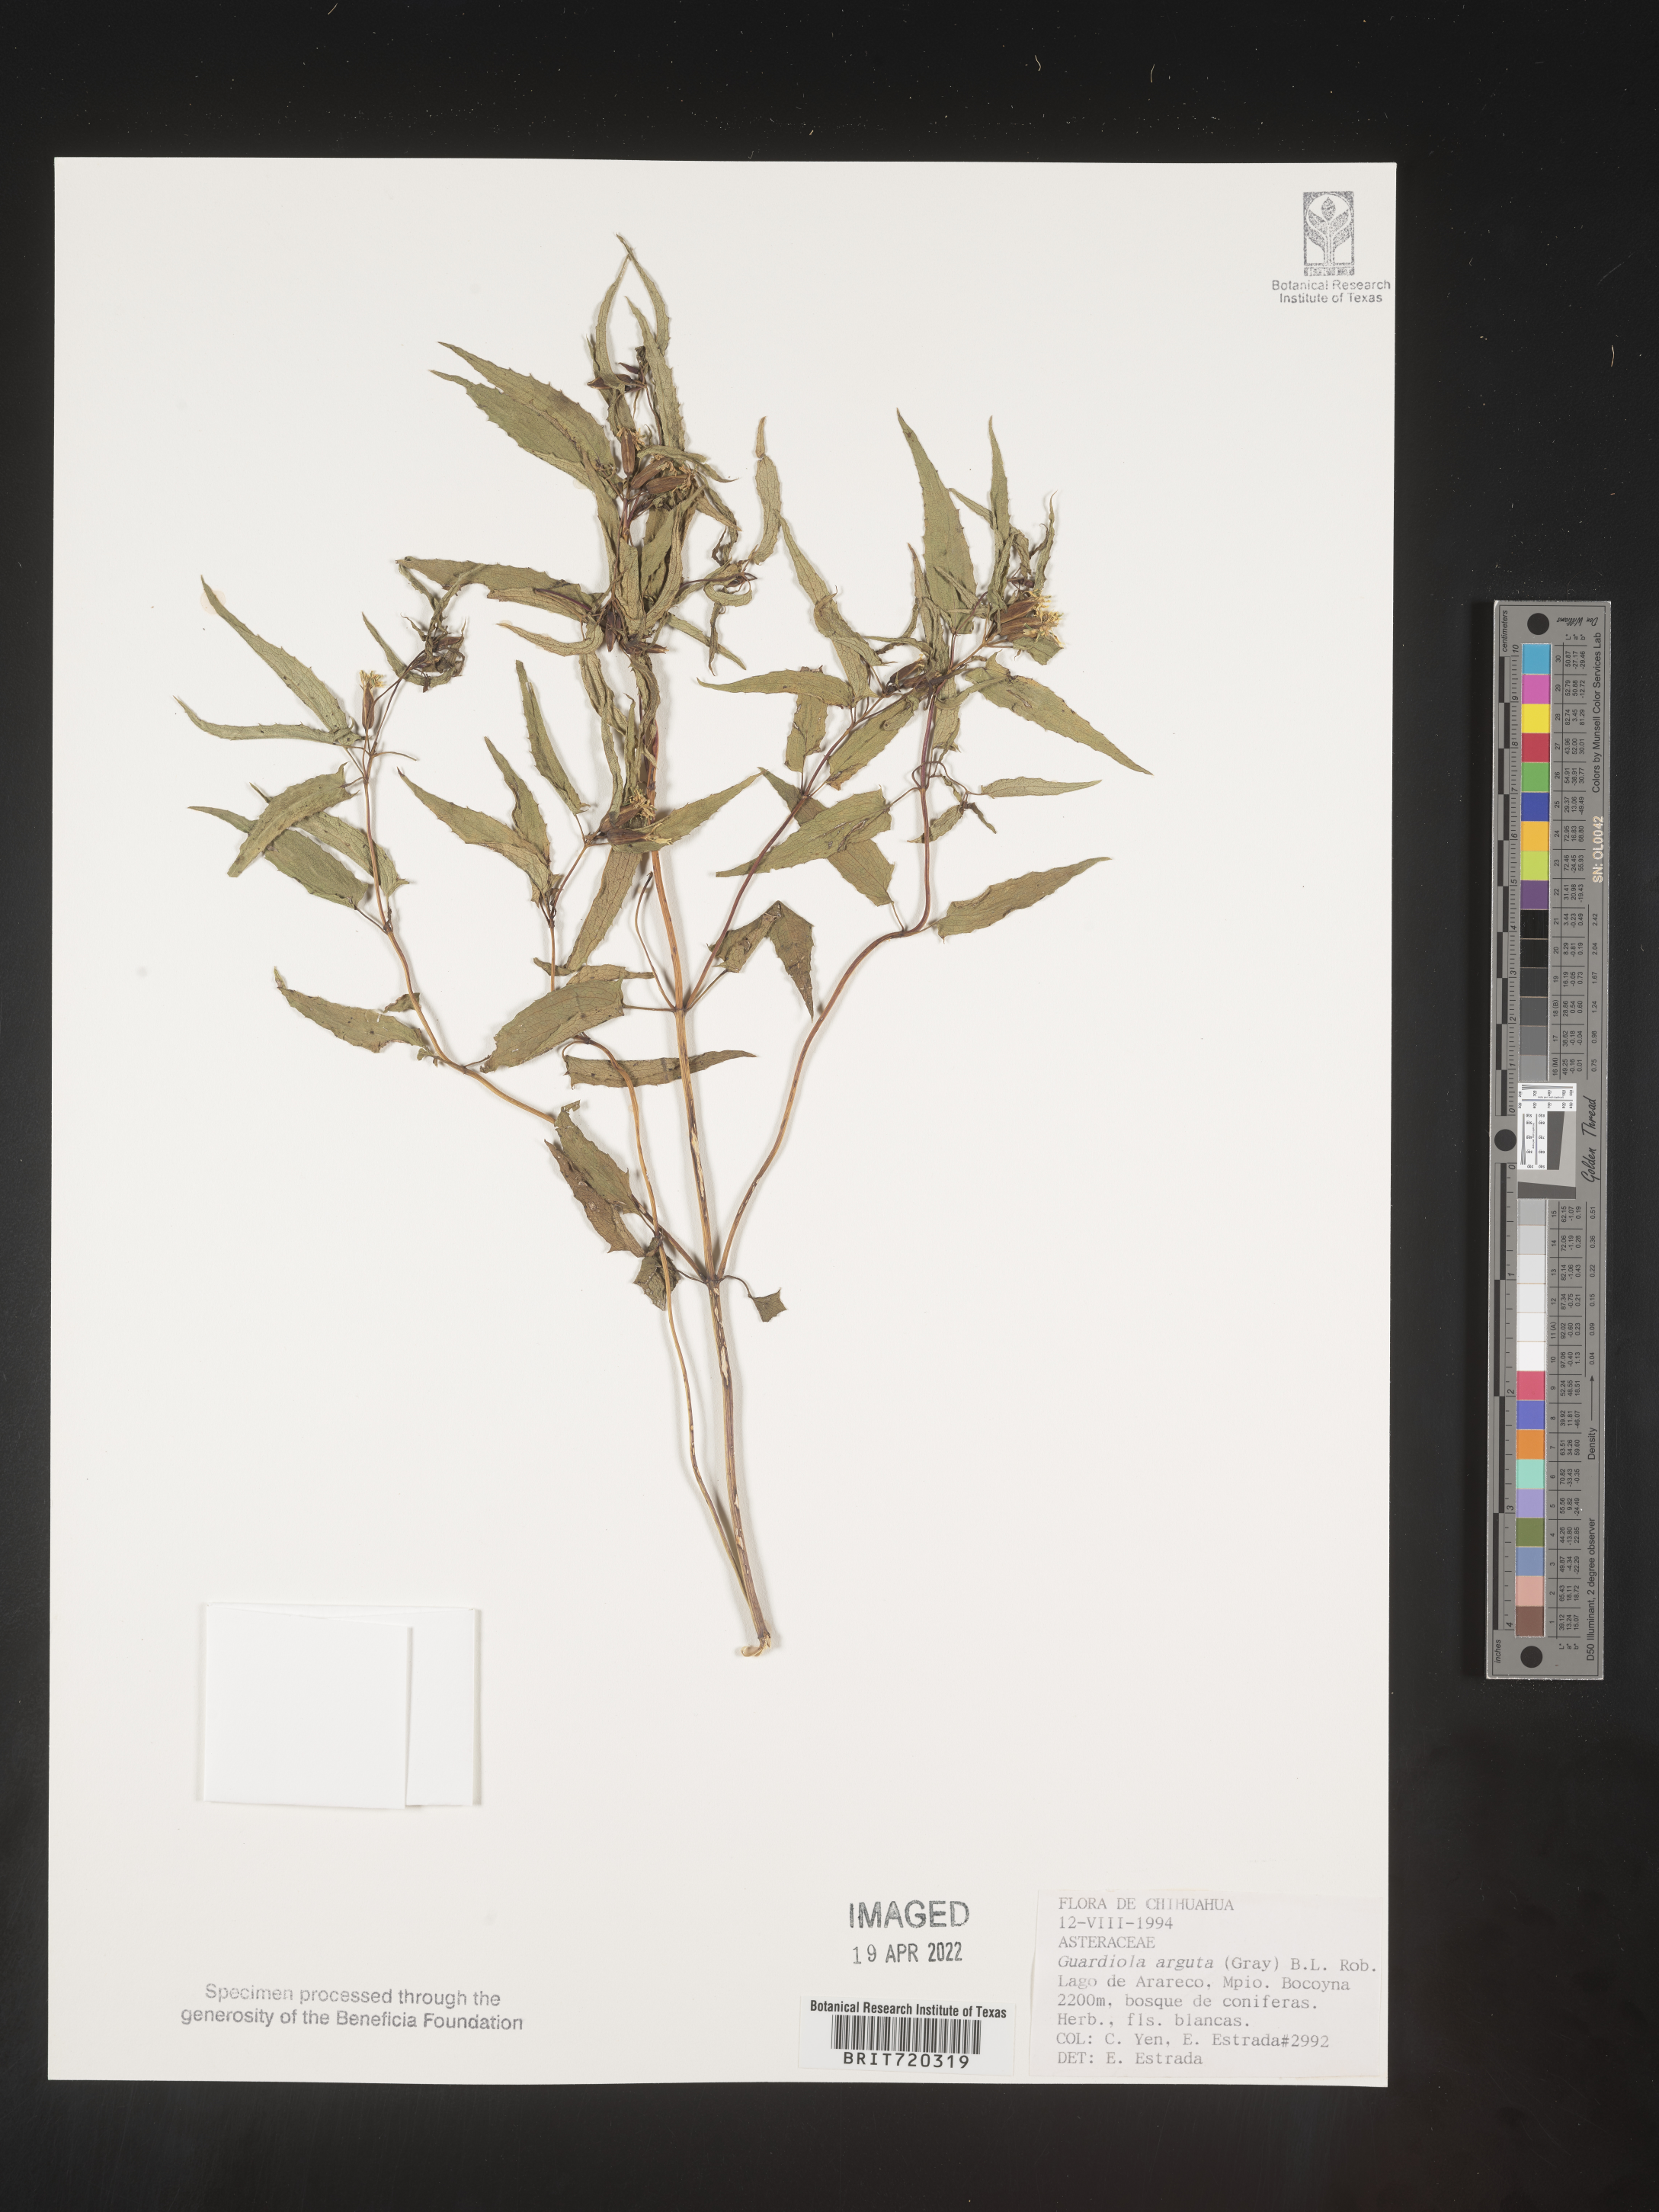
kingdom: Plantae
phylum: Tracheophyta
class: Magnoliopsida
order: Asterales
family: Asteraceae
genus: Guardiola
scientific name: Guardiola
